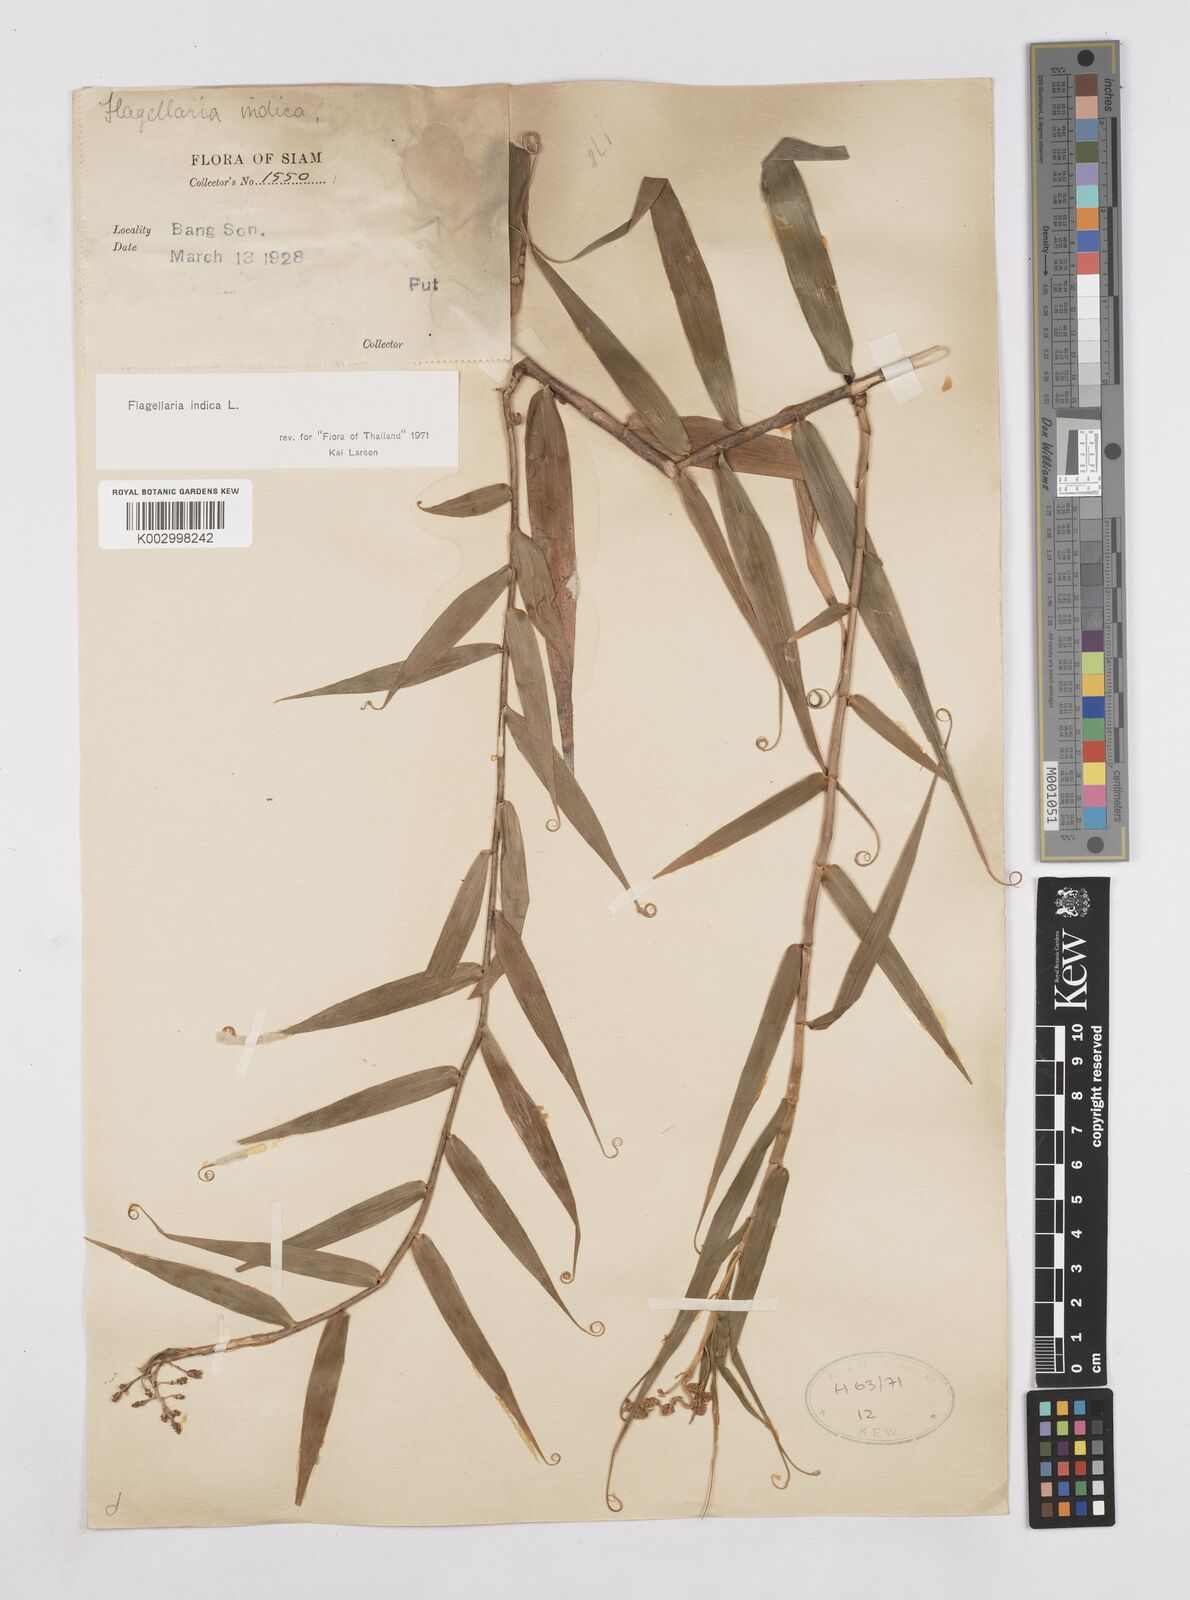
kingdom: Plantae
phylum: Tracheophyta
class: Liliopsida
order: Poales
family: Flagellariaceae
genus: Flagellaria
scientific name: Flagellaria indica
